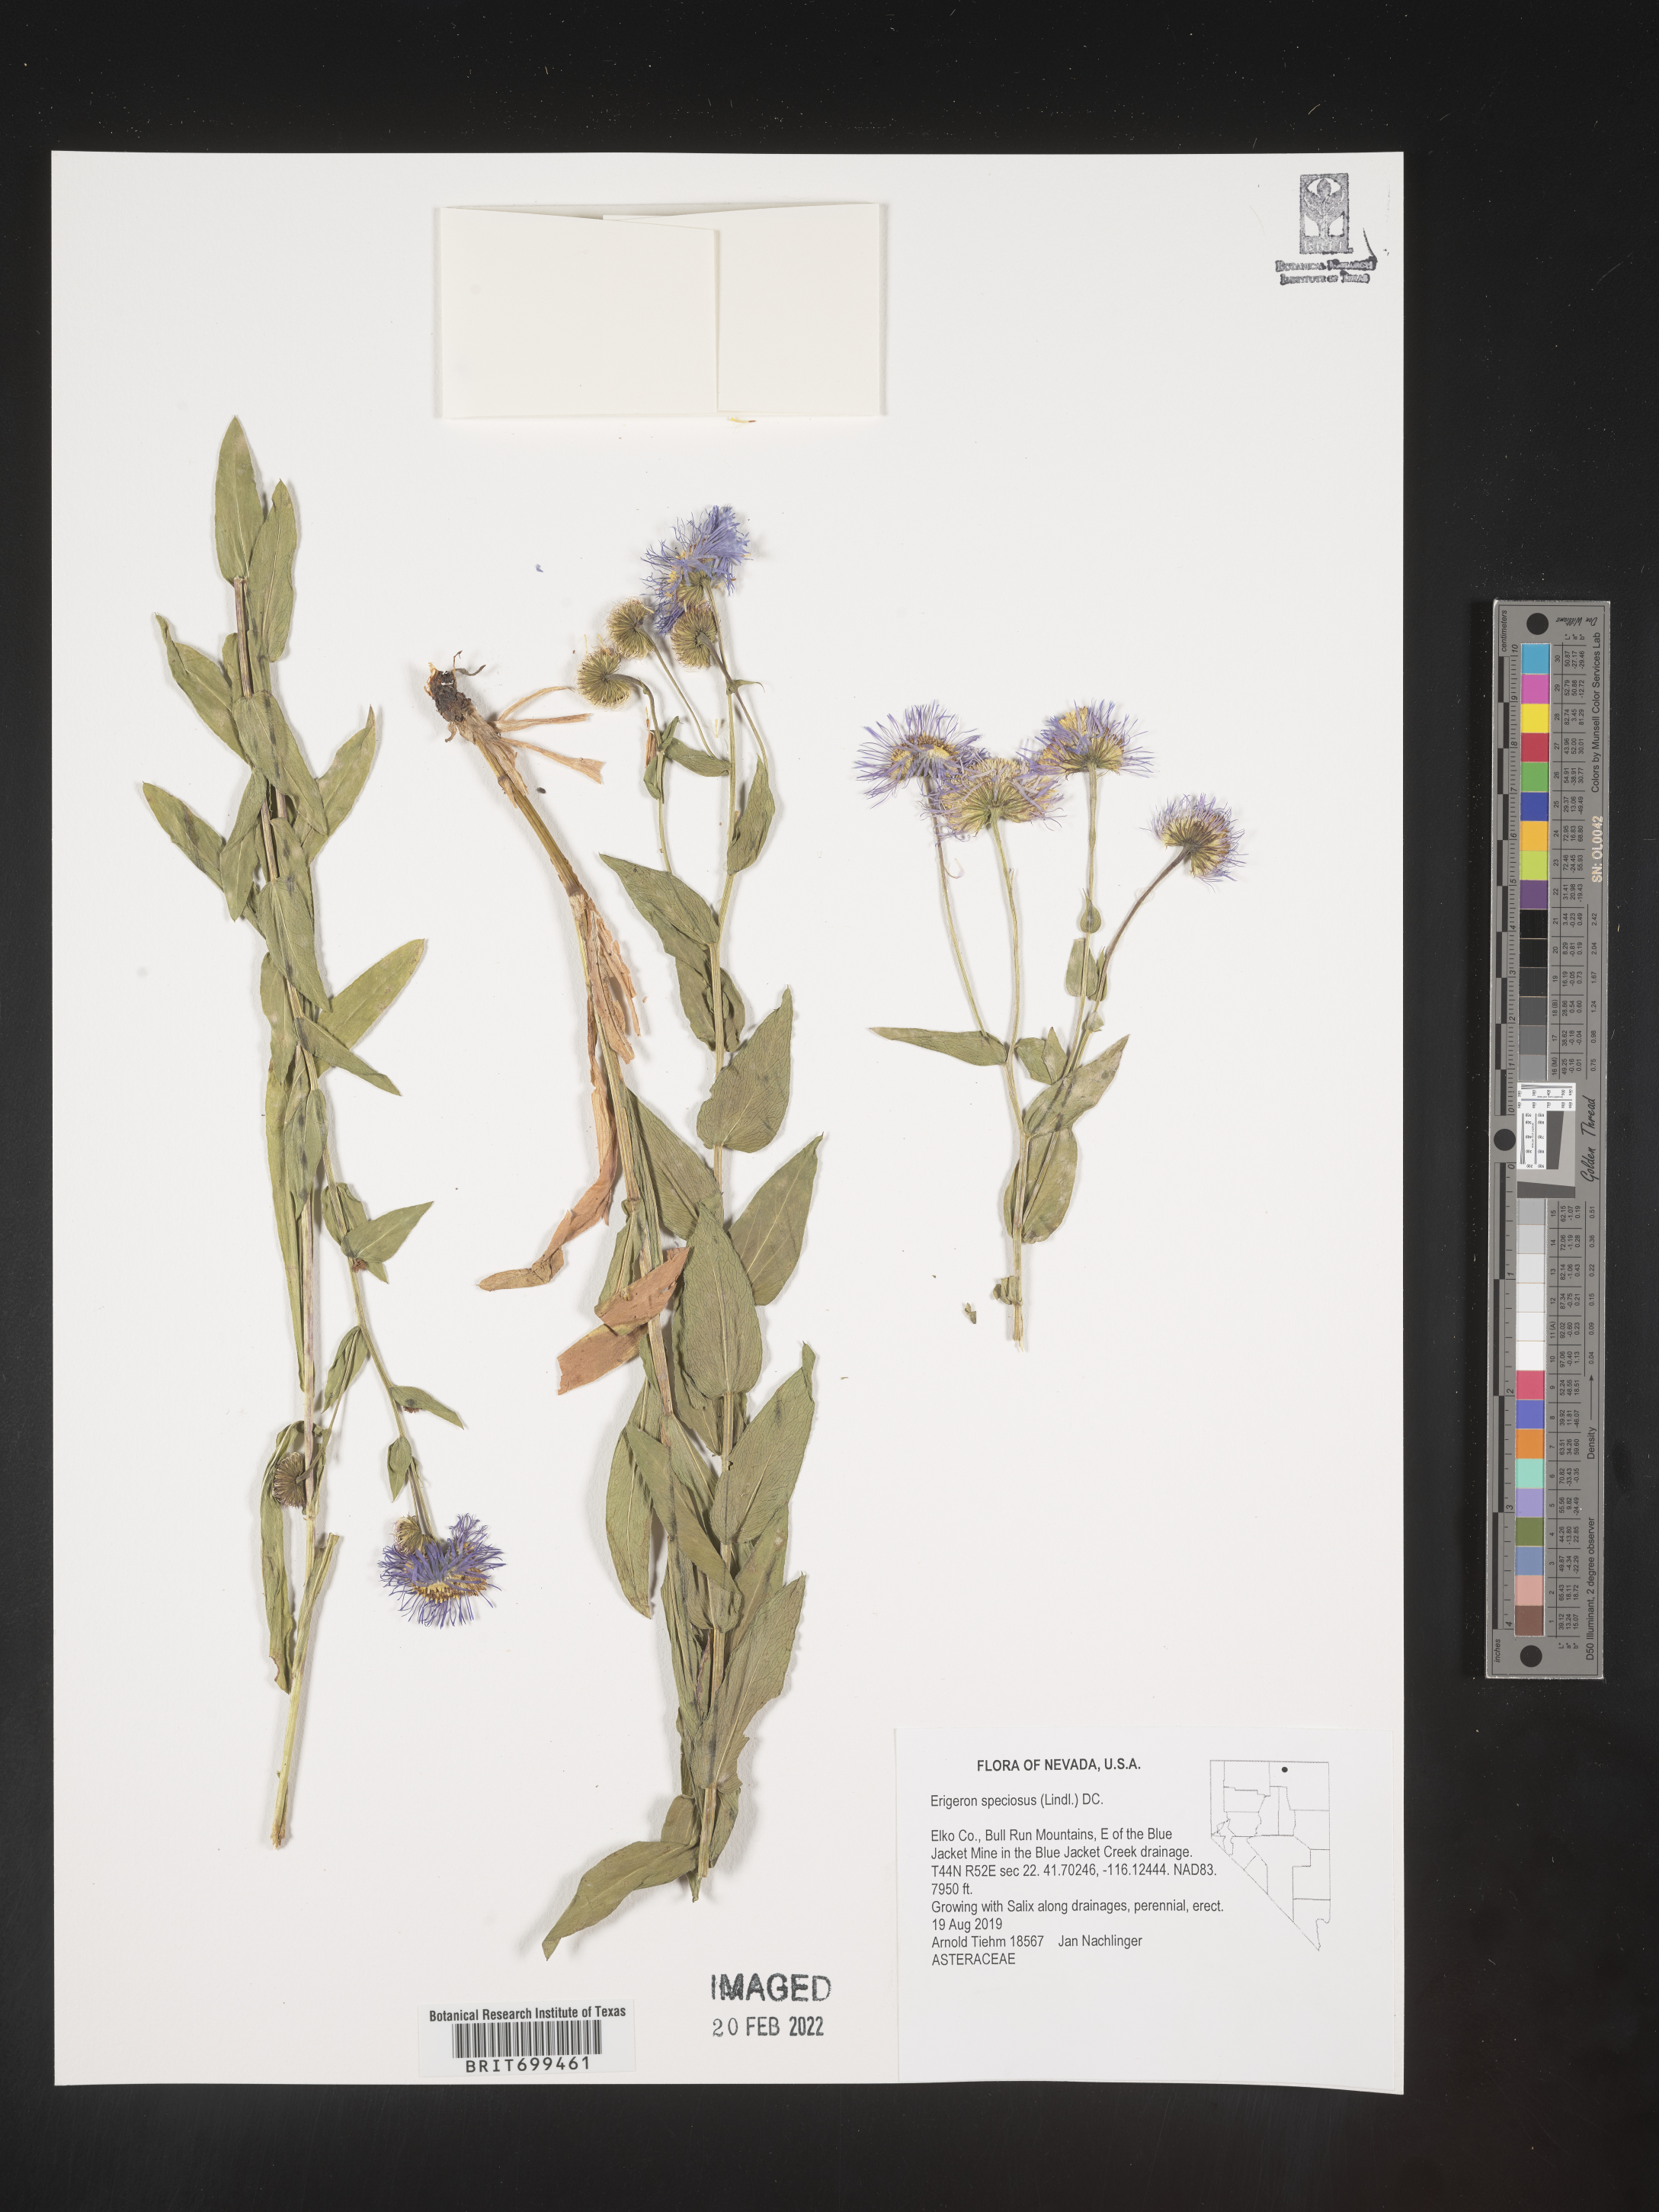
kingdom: Plantae
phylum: Tracheophyta
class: Magnoliopsida
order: Asterales
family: Asteraceae
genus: Erigeron
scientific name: Erigeron speciosus
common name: Aspen fleabane
